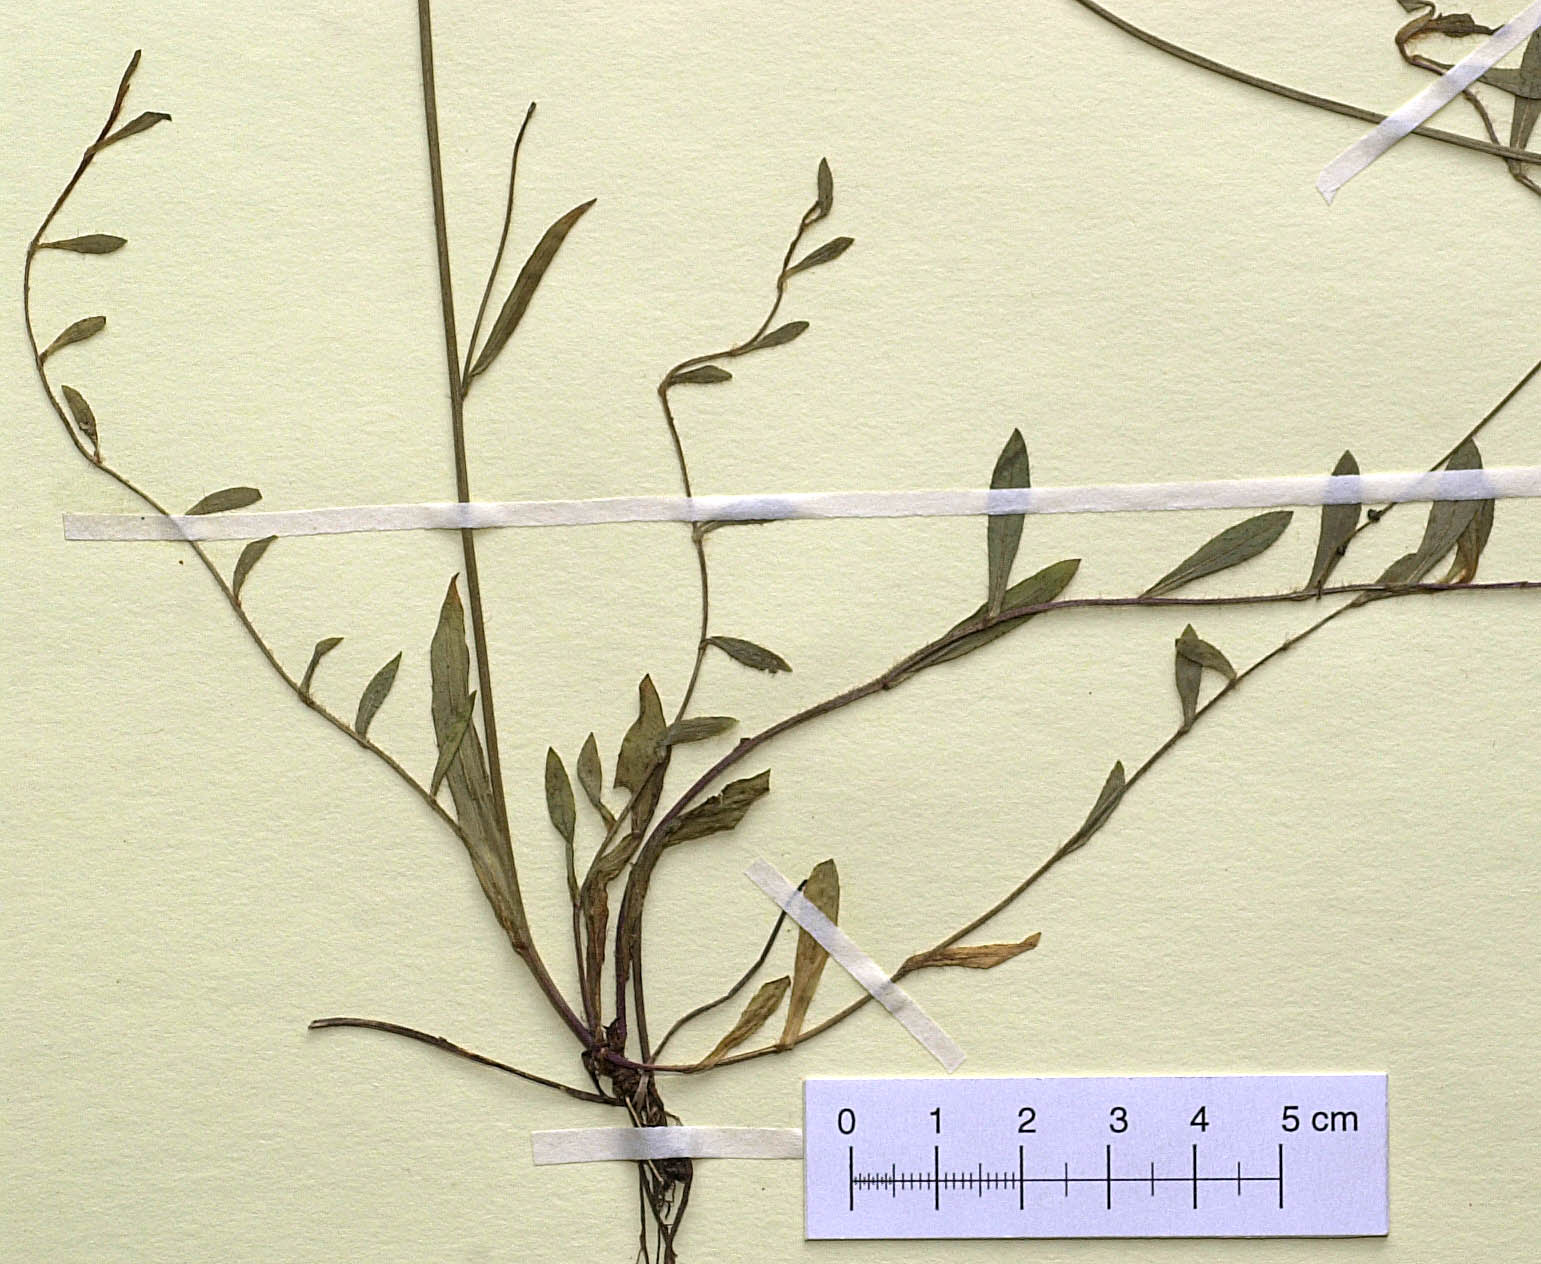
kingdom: Plantae
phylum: Tracheophyta
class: Magnoliopsida
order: Asterales
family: Asteraceae
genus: Pilosella
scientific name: Pilosella bauhini
